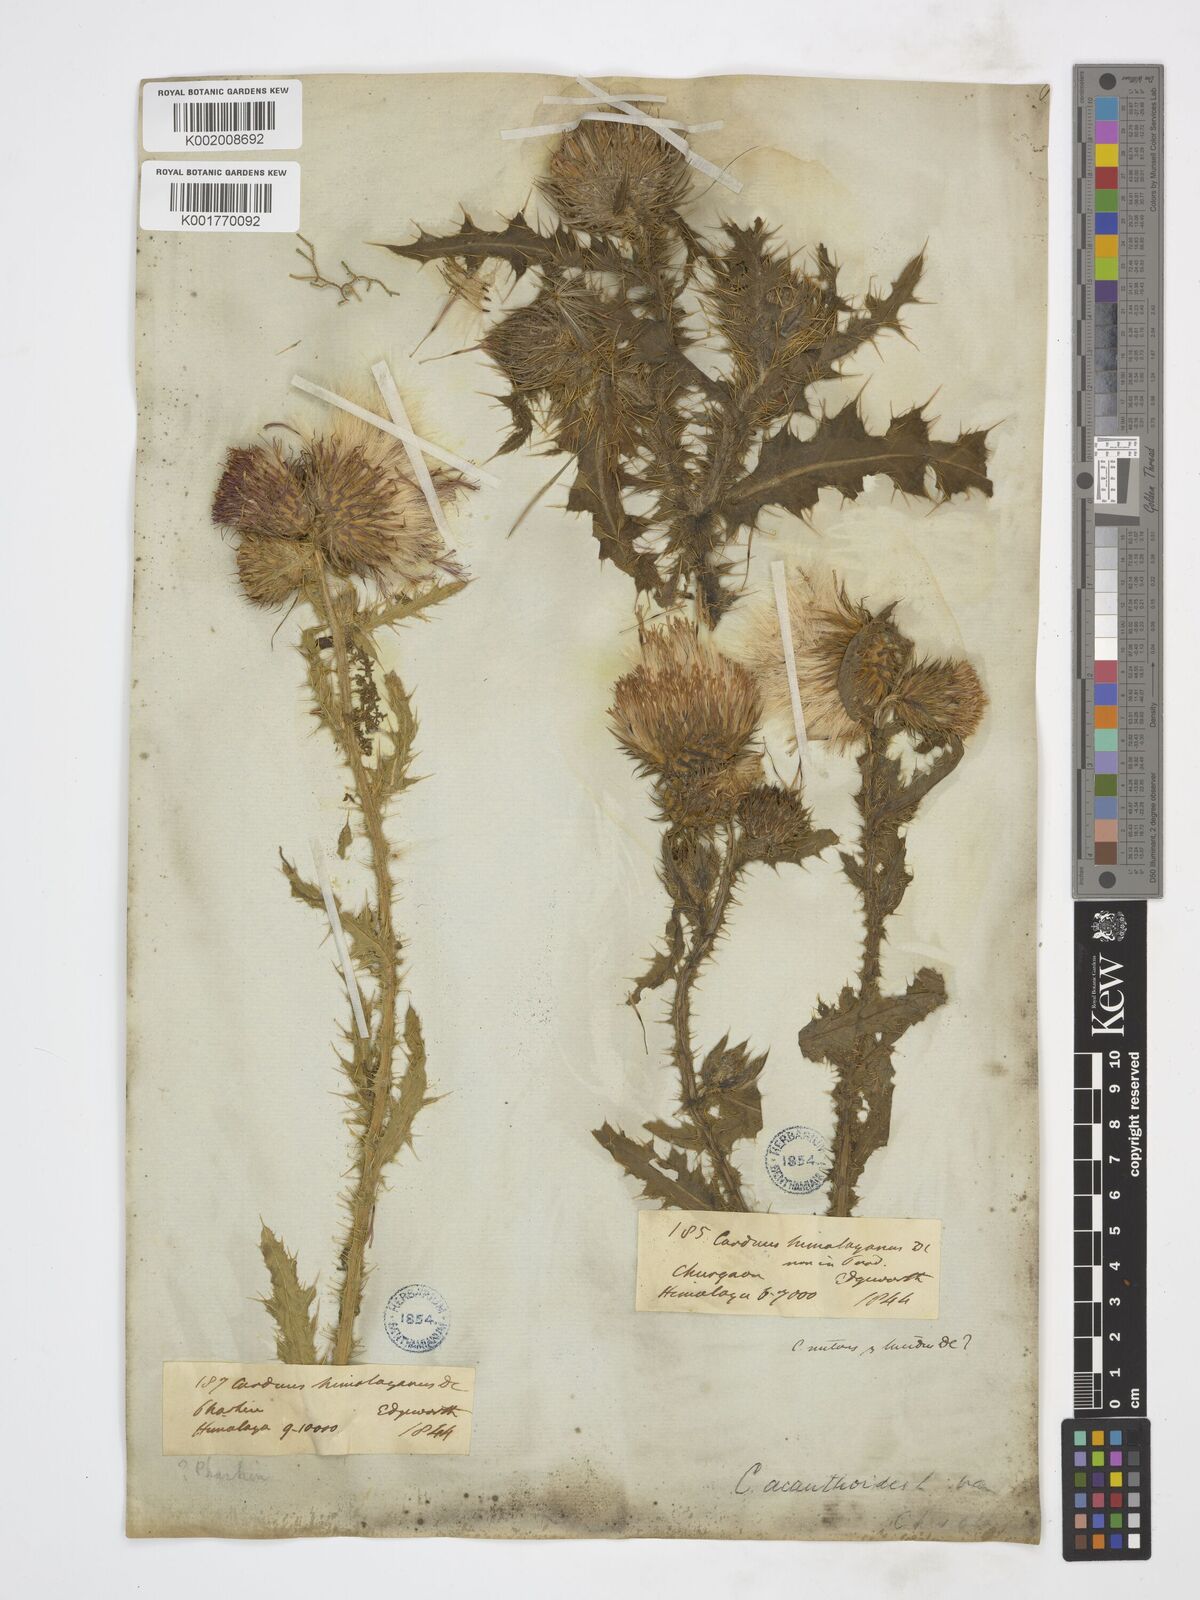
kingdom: Plantae
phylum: Tracheophyta
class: Magnoliopsida
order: Asterales
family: Asteraceae
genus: Carduus
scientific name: Carduus nutans
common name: Musk thistle
